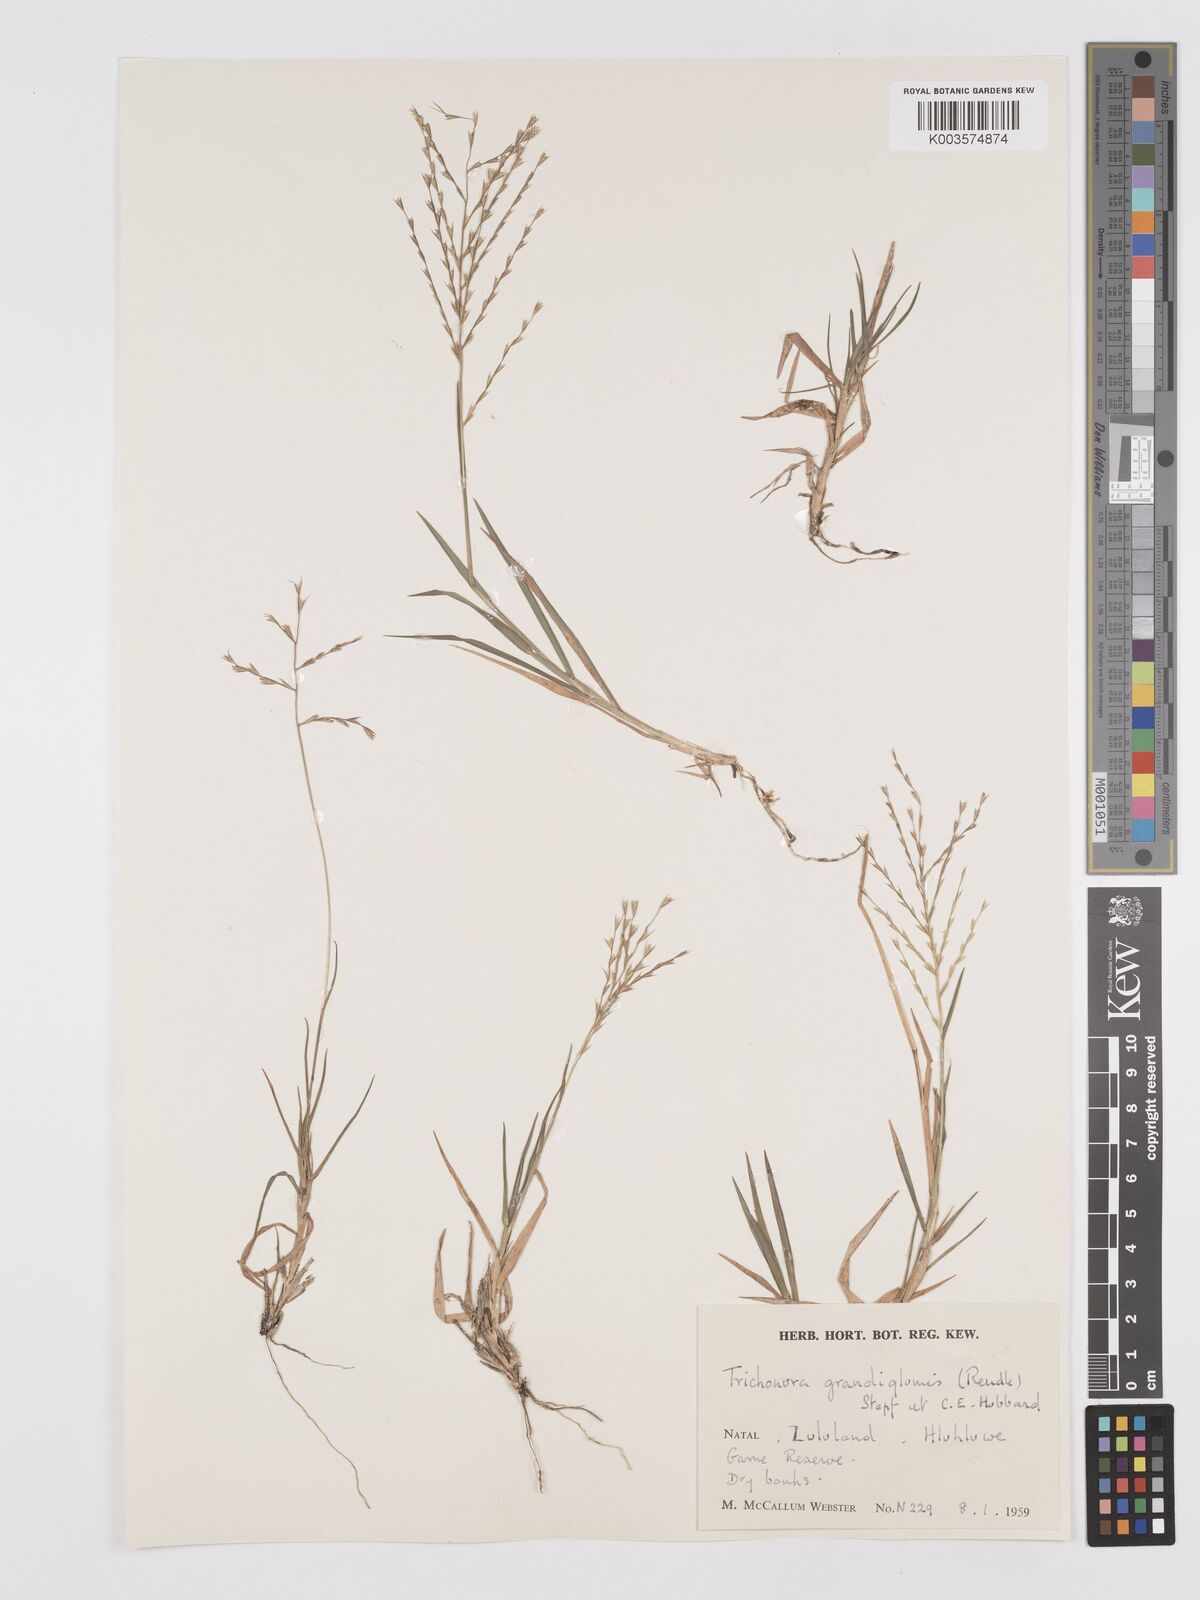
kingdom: Plantae
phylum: Tracheophyta
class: Liliopsida
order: Poales
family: Poaceae
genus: Trichoneura
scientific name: Trichoneura grandiglumis
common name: Rolling grass
